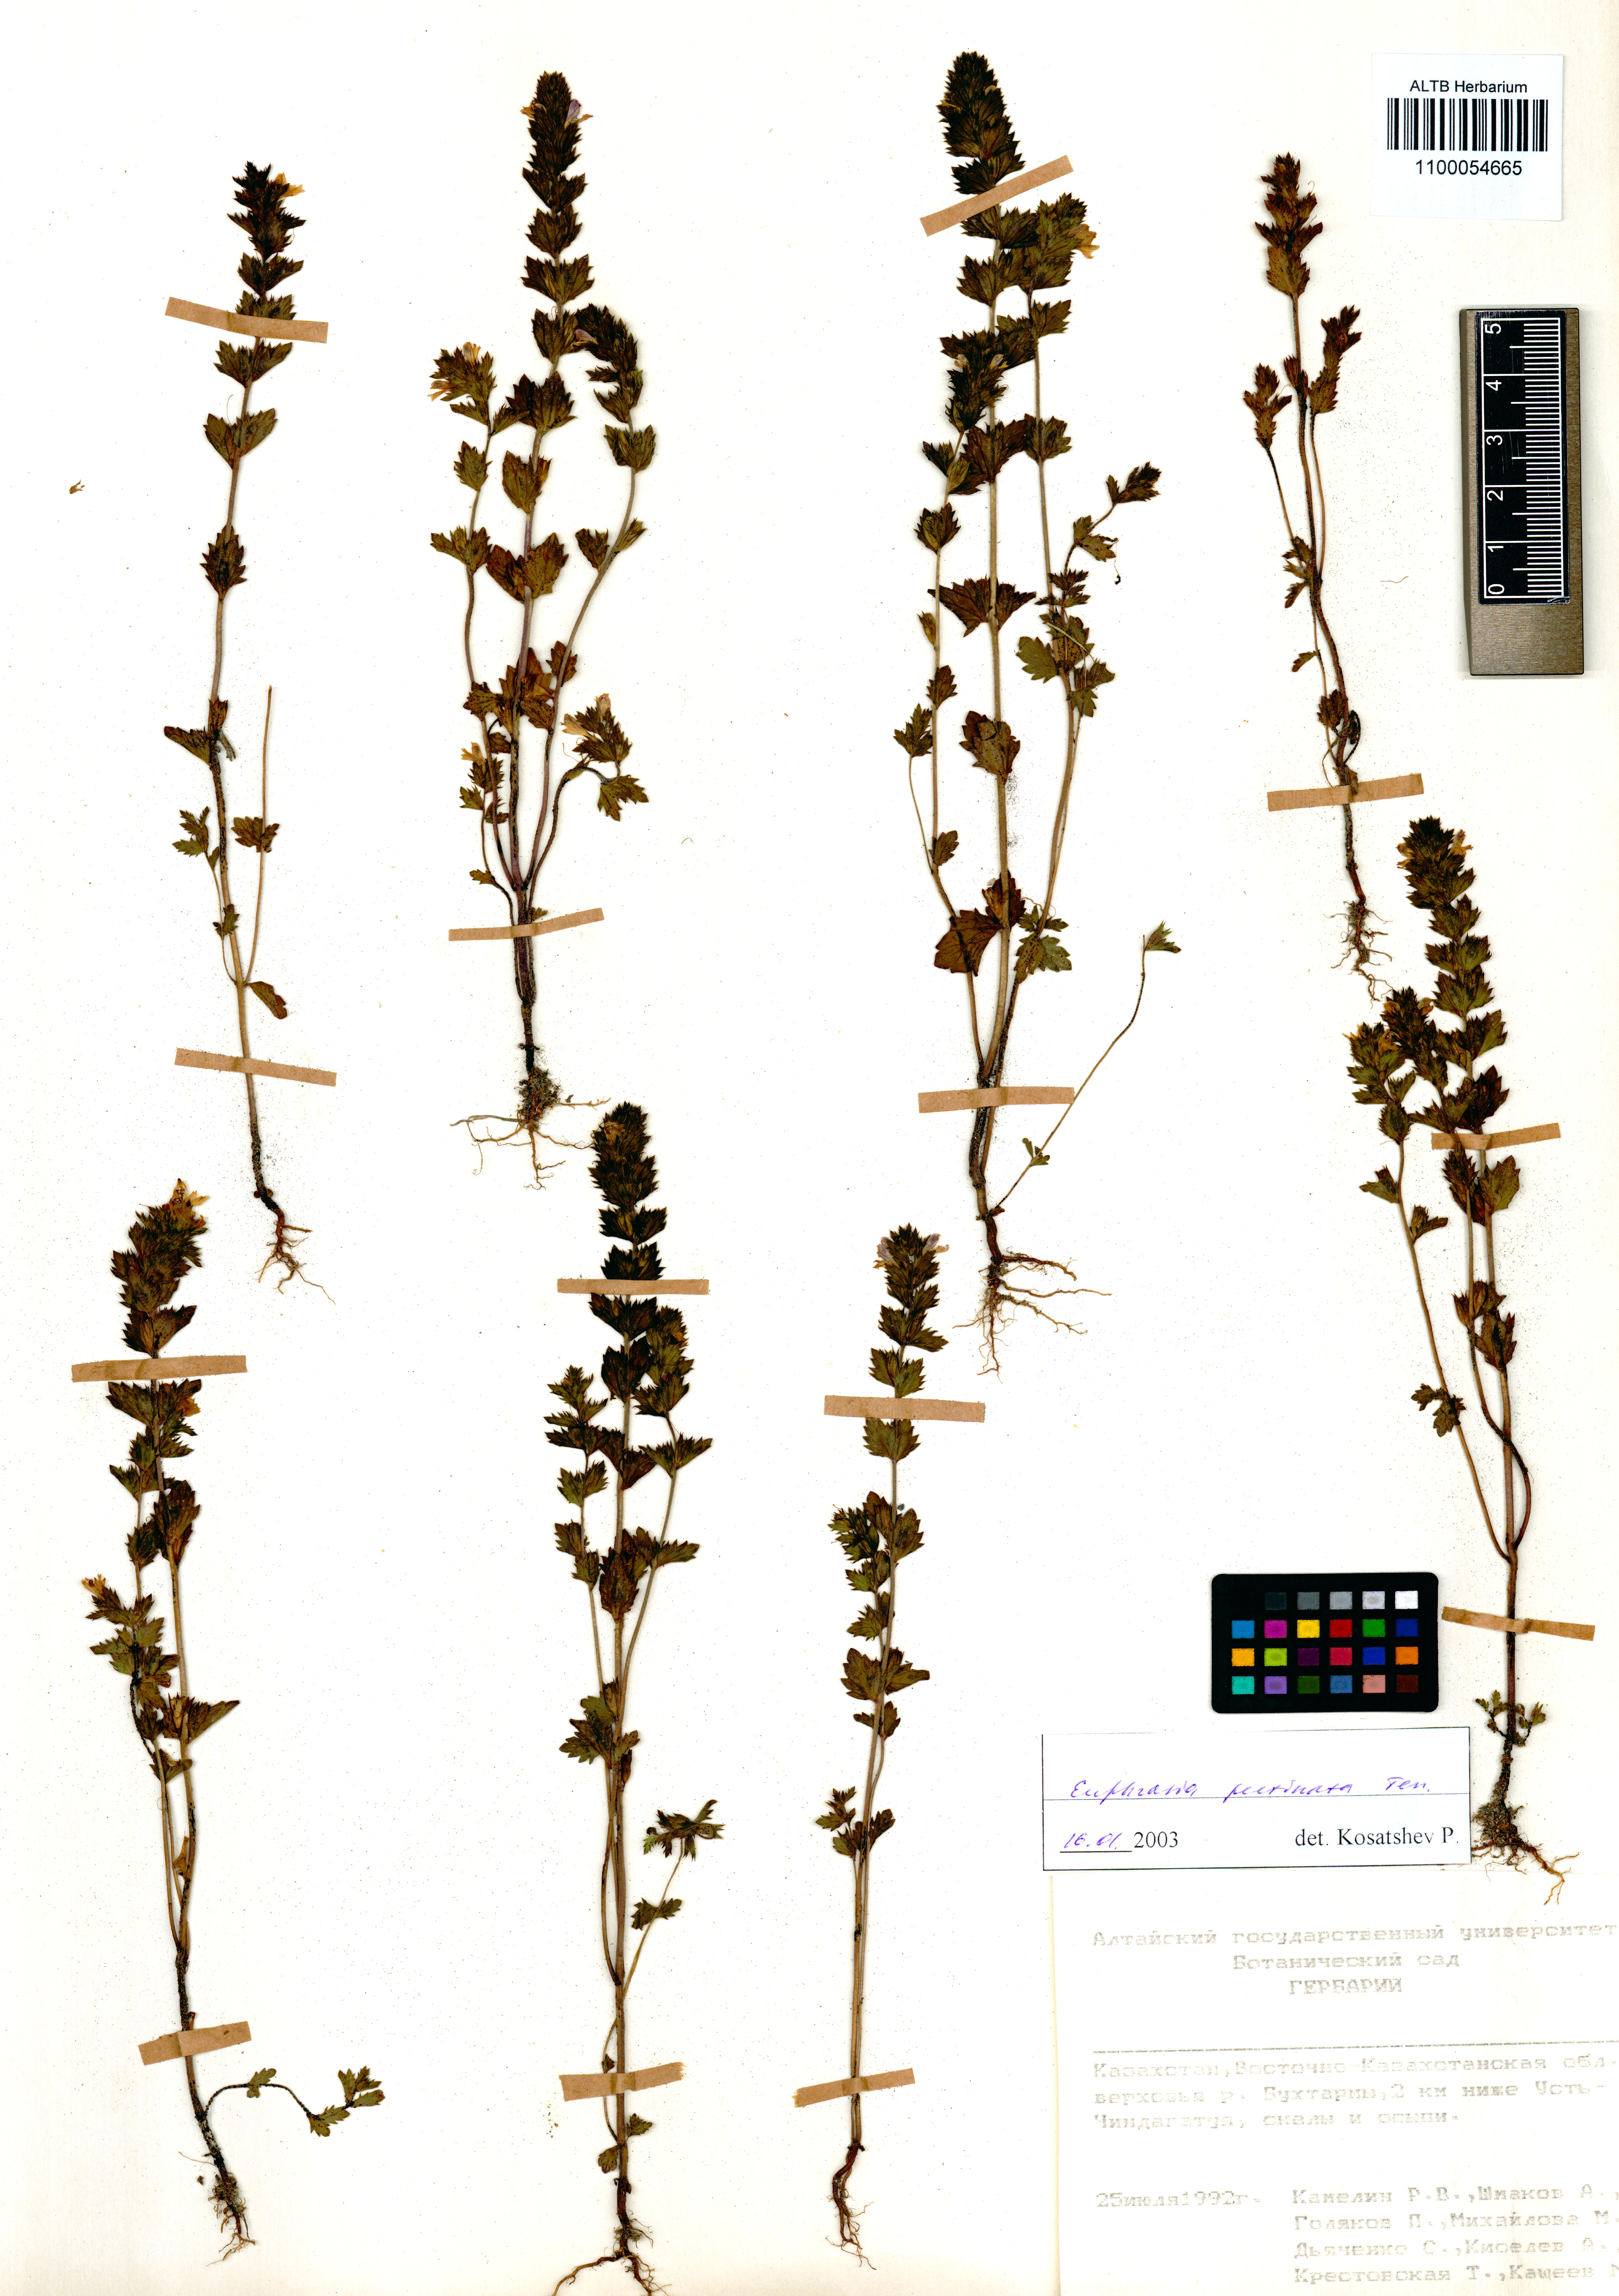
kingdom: Plantae
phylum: Tracheophyta
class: Magnoliopsida
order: Lamiales
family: Orobanchaceae
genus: Euphrasia
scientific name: Euphrasia pectinata
